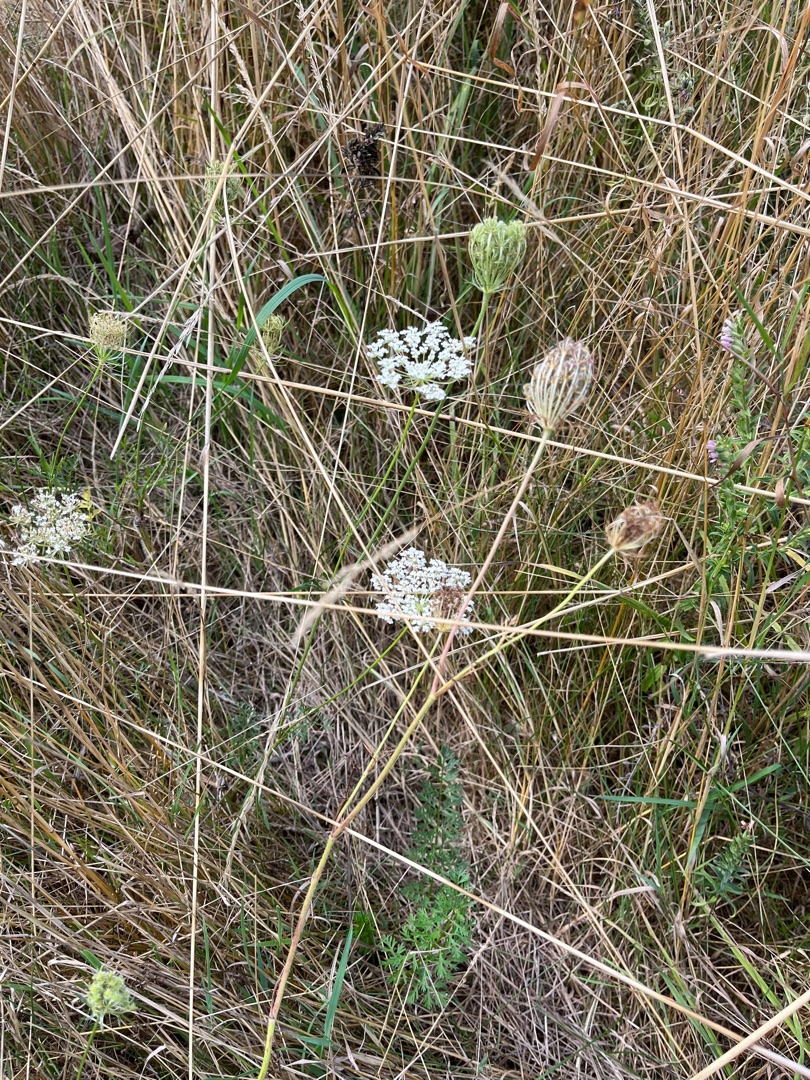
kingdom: Plantae
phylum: Tracheophyta
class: Magnoliopsida
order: Apiales
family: Apiaceae
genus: Daucus
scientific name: Daucus carota
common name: Vild gulerod
